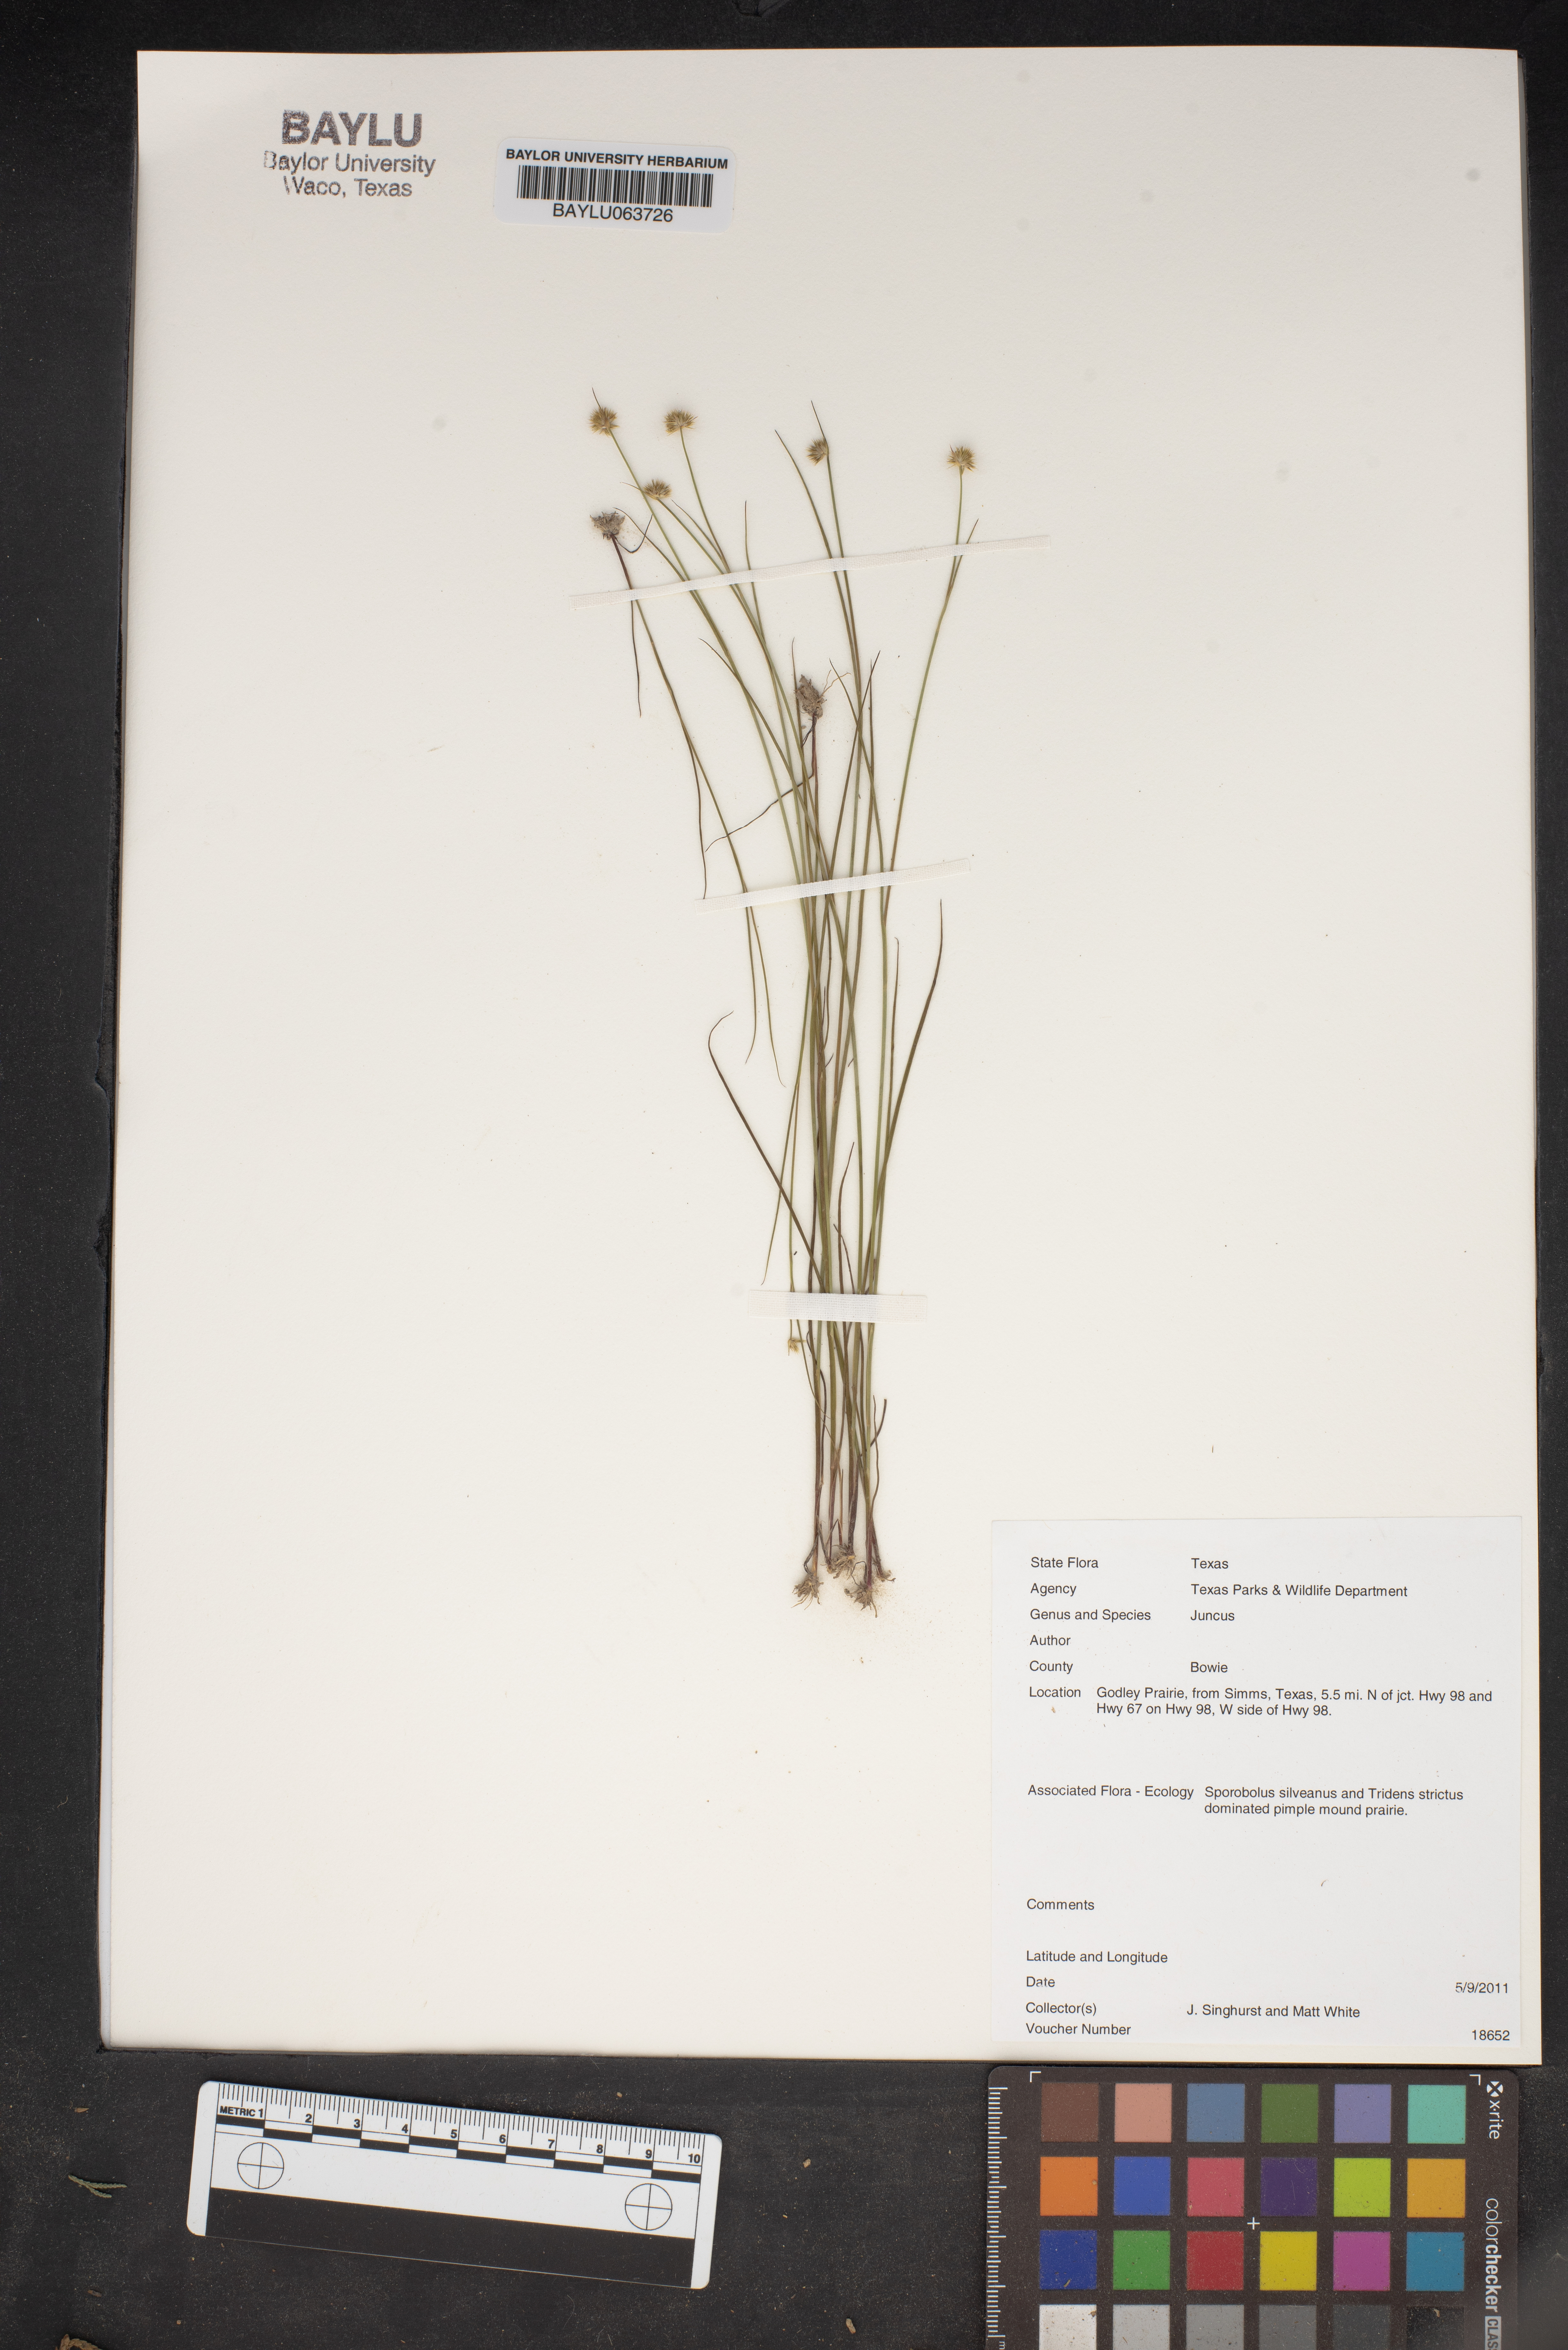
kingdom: Plantae
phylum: Tracheophyta
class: Liliopsida
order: Poales
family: Juncaceae
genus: Juncus
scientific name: Juncus
